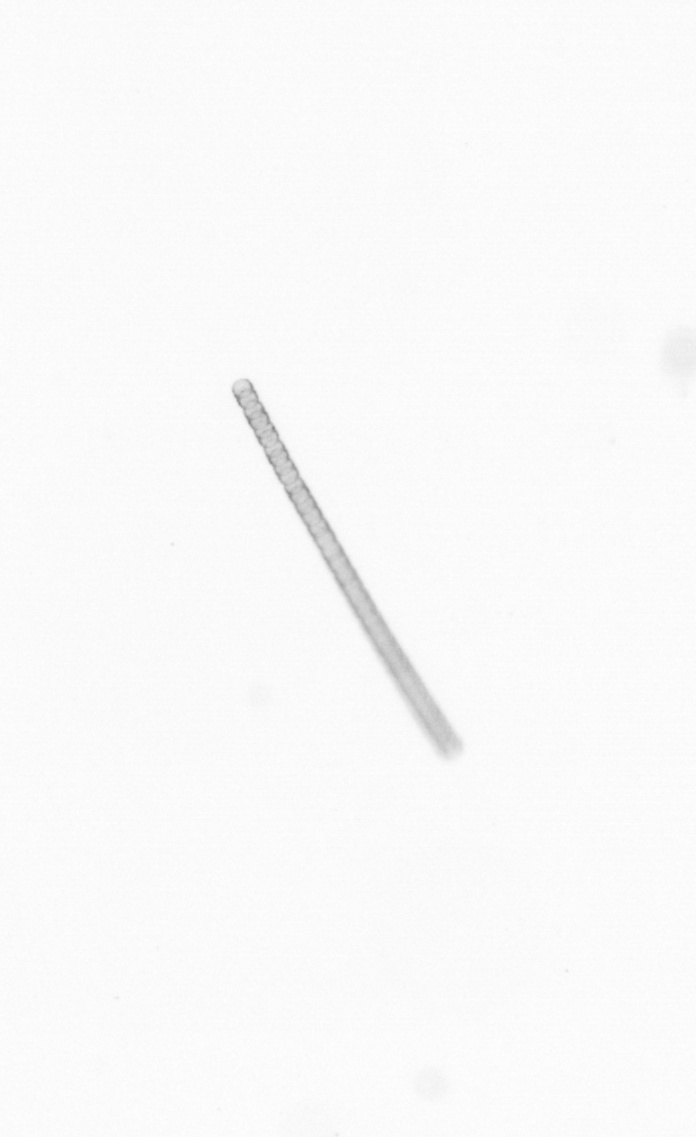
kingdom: Chromista
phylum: Ochrophyta
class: Bacillariophyceae
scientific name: Bacillariophyceae
